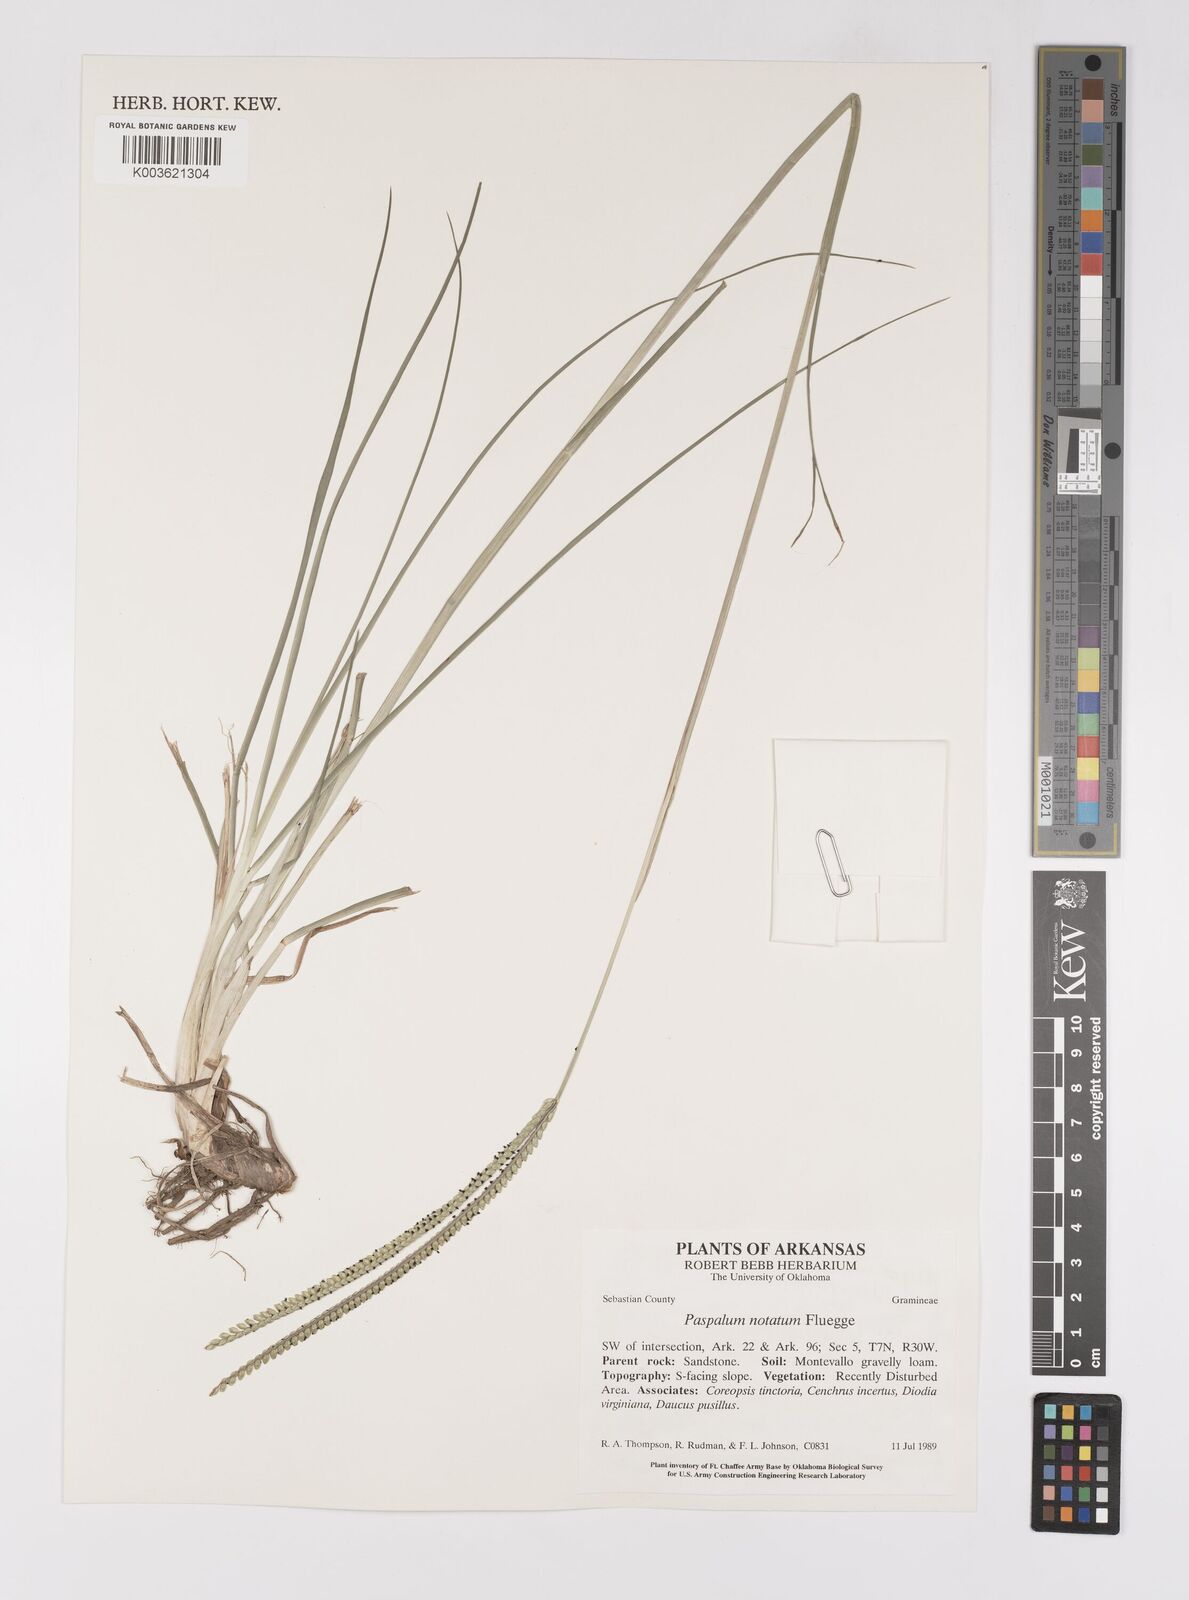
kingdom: Plantae
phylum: Tracheophyta
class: Liliopsida
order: Poales
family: Poaceae
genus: Paspalum
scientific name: Paspalum notatum
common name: Bahiagrass
